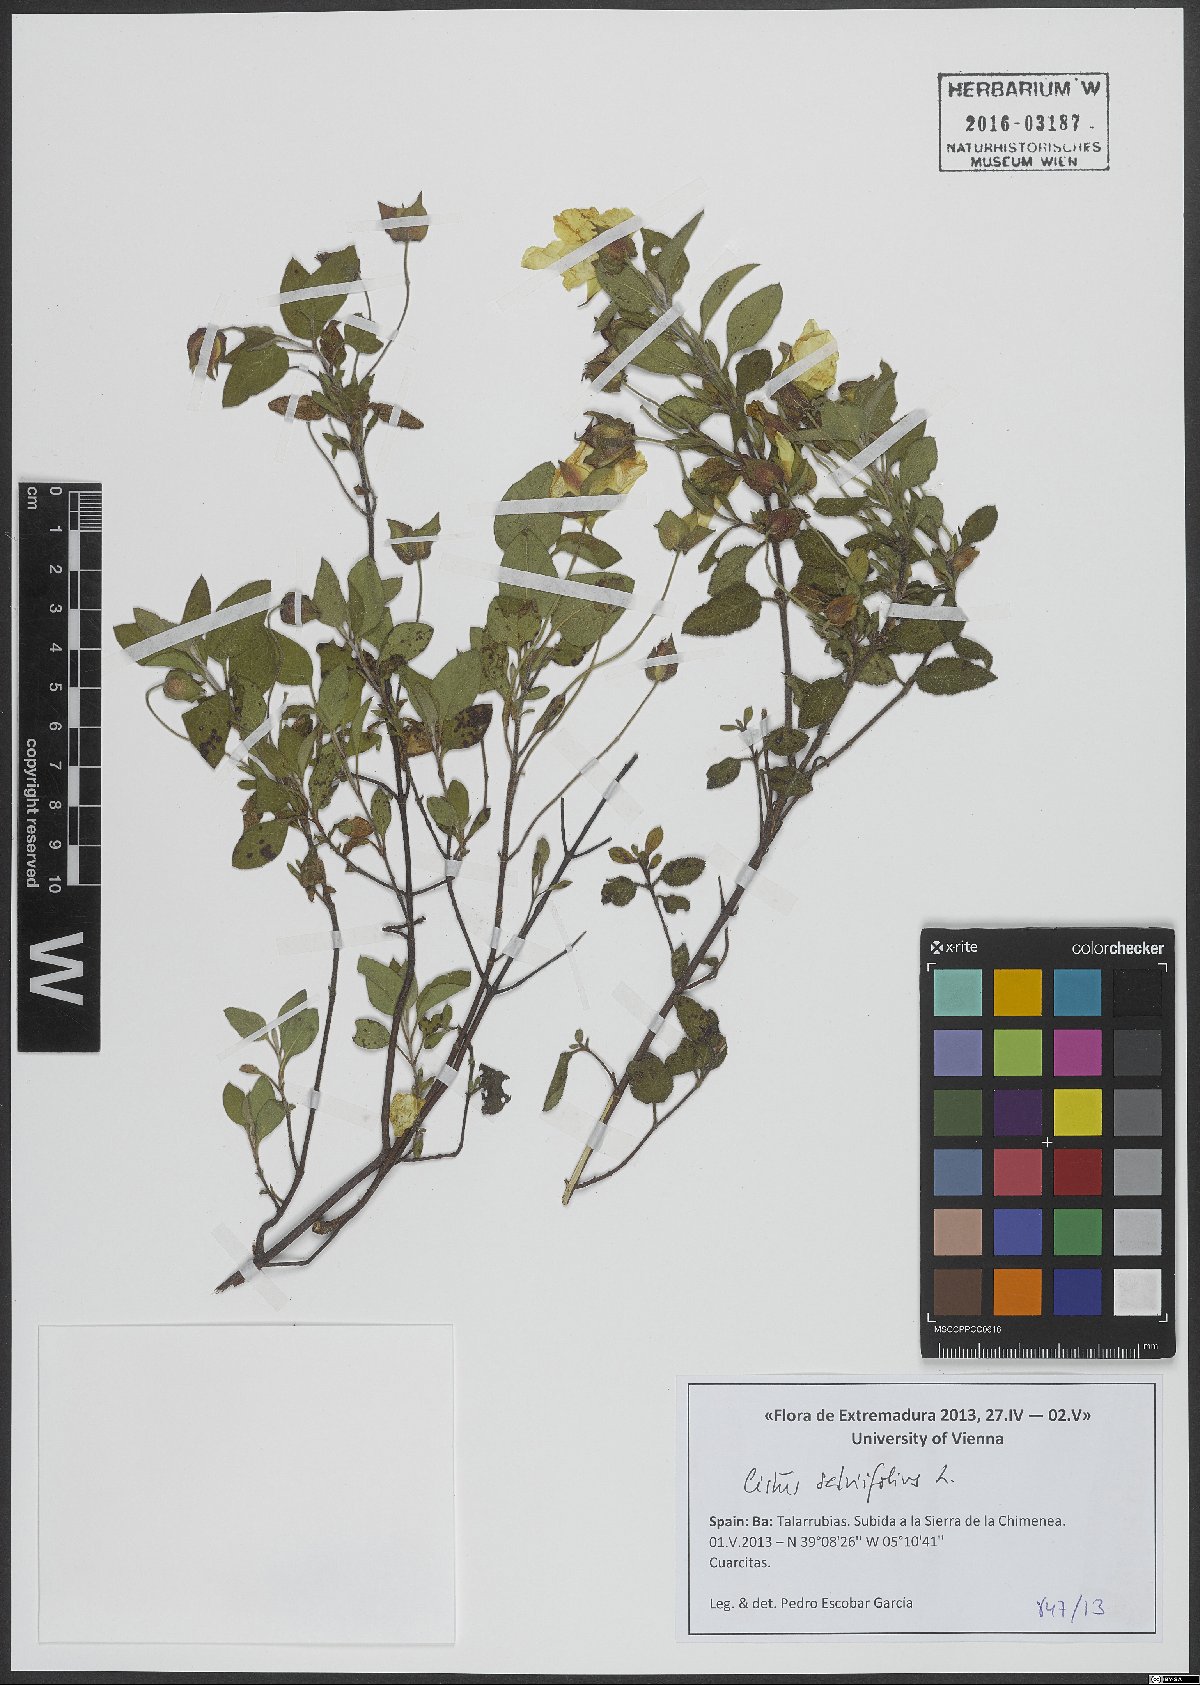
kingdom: Plantae
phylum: Tracheophyta
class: Magnoliopsida
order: Malvales
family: Cistaceae
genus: Cistus
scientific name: Cistus salviifolius
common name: Salvia cistus
